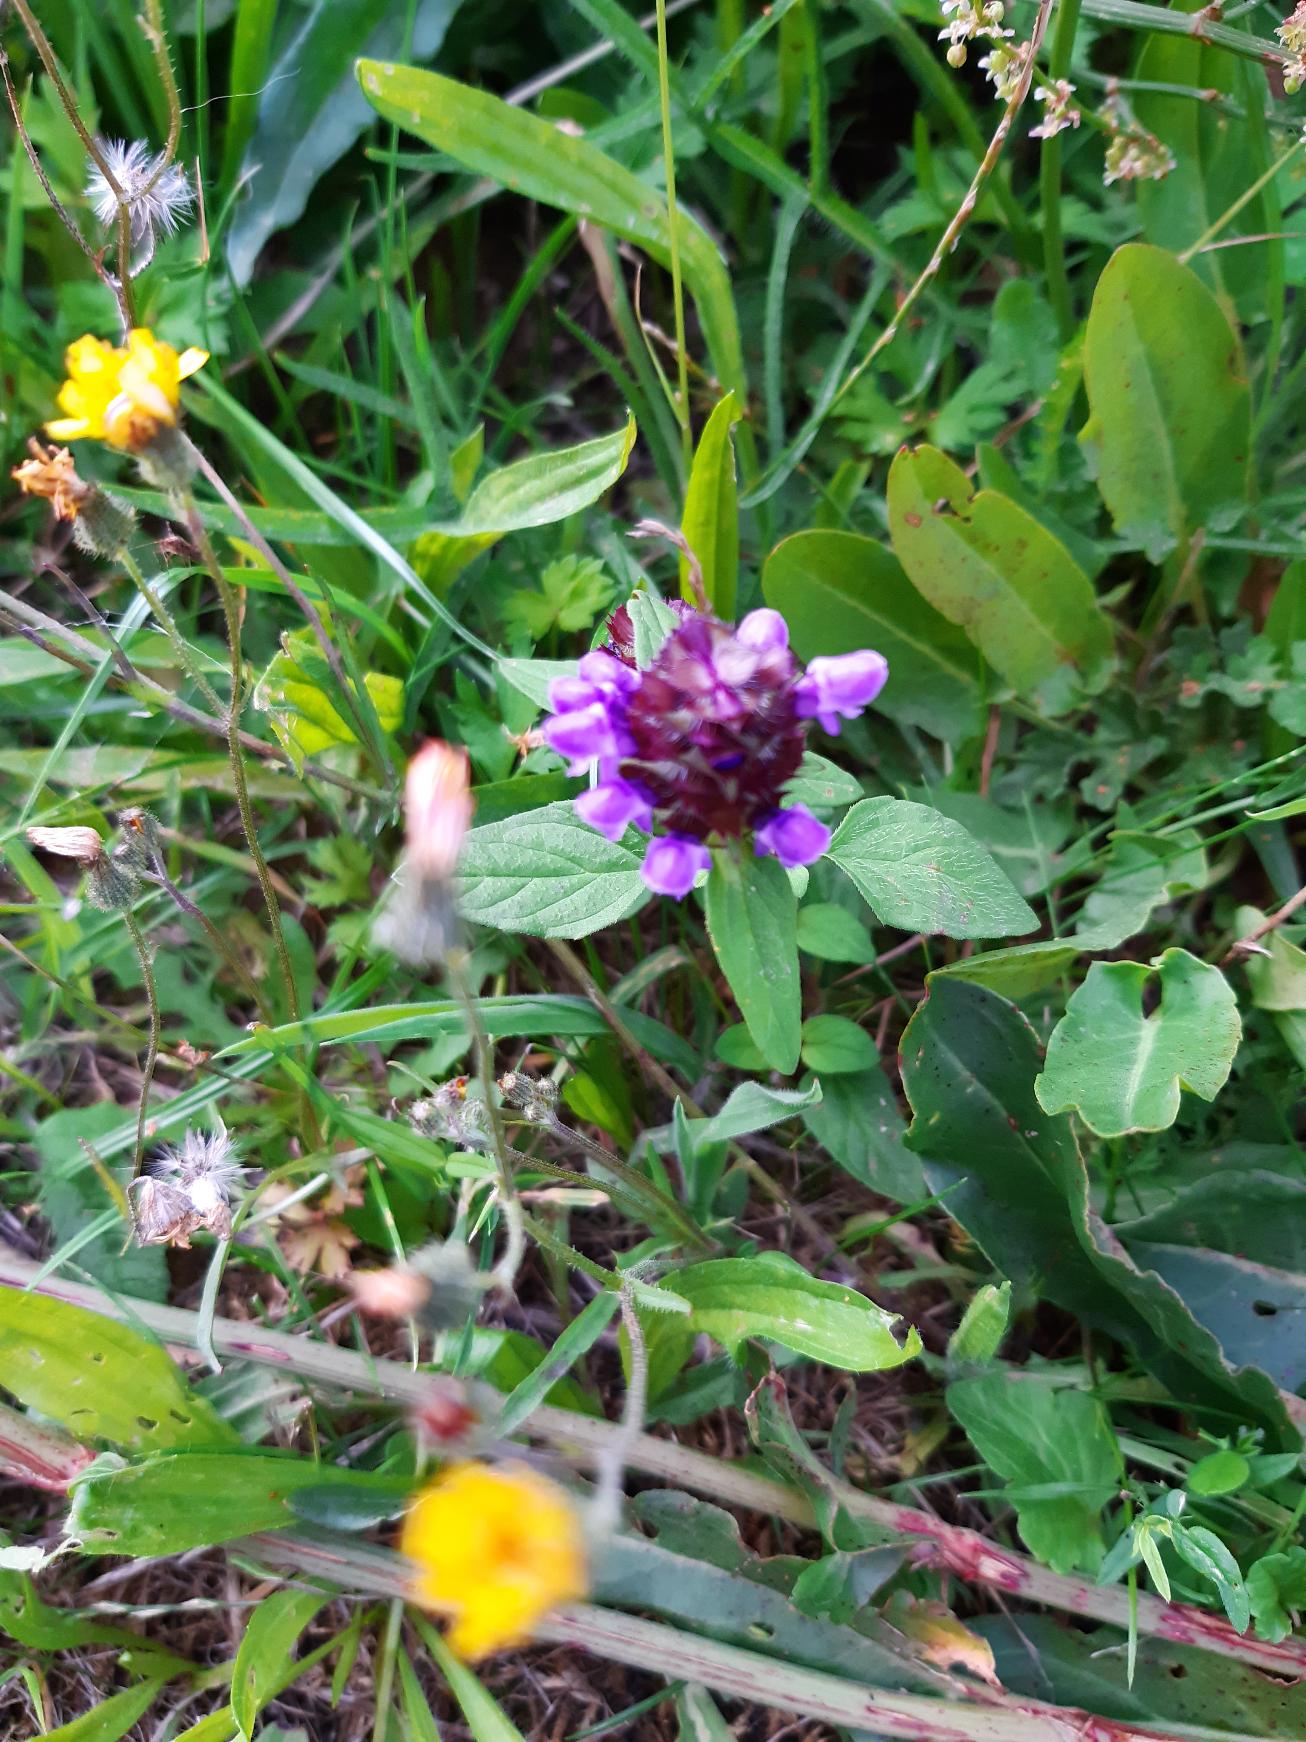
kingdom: Plantae
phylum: Tracheophyta
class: Magnoliopsida
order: Lamiales
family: Lamiaceae
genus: Prunella
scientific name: Prunella vulgaris
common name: Almindelig brunelle
